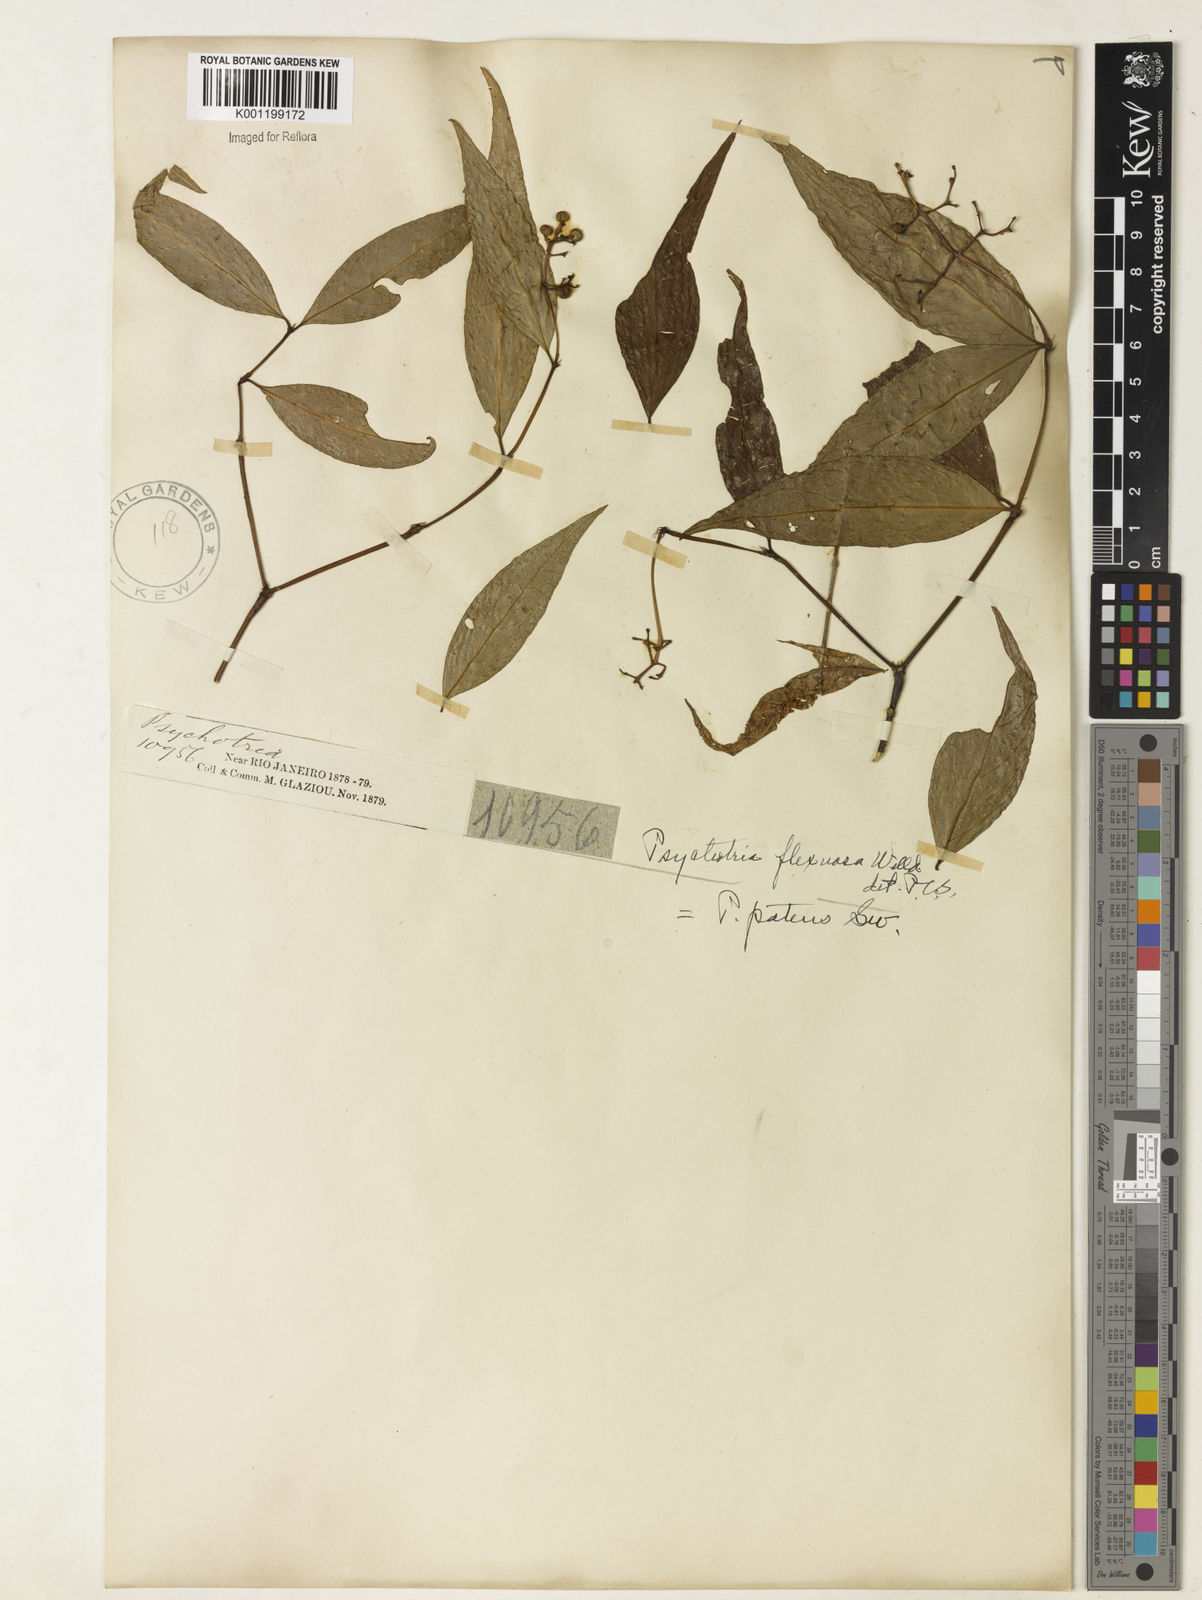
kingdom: Plantae
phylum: Tracheophyta
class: Magnoliopsida
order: Gentianales
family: Rubiaceae
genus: Palicourea
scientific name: Palicourea deflexa
